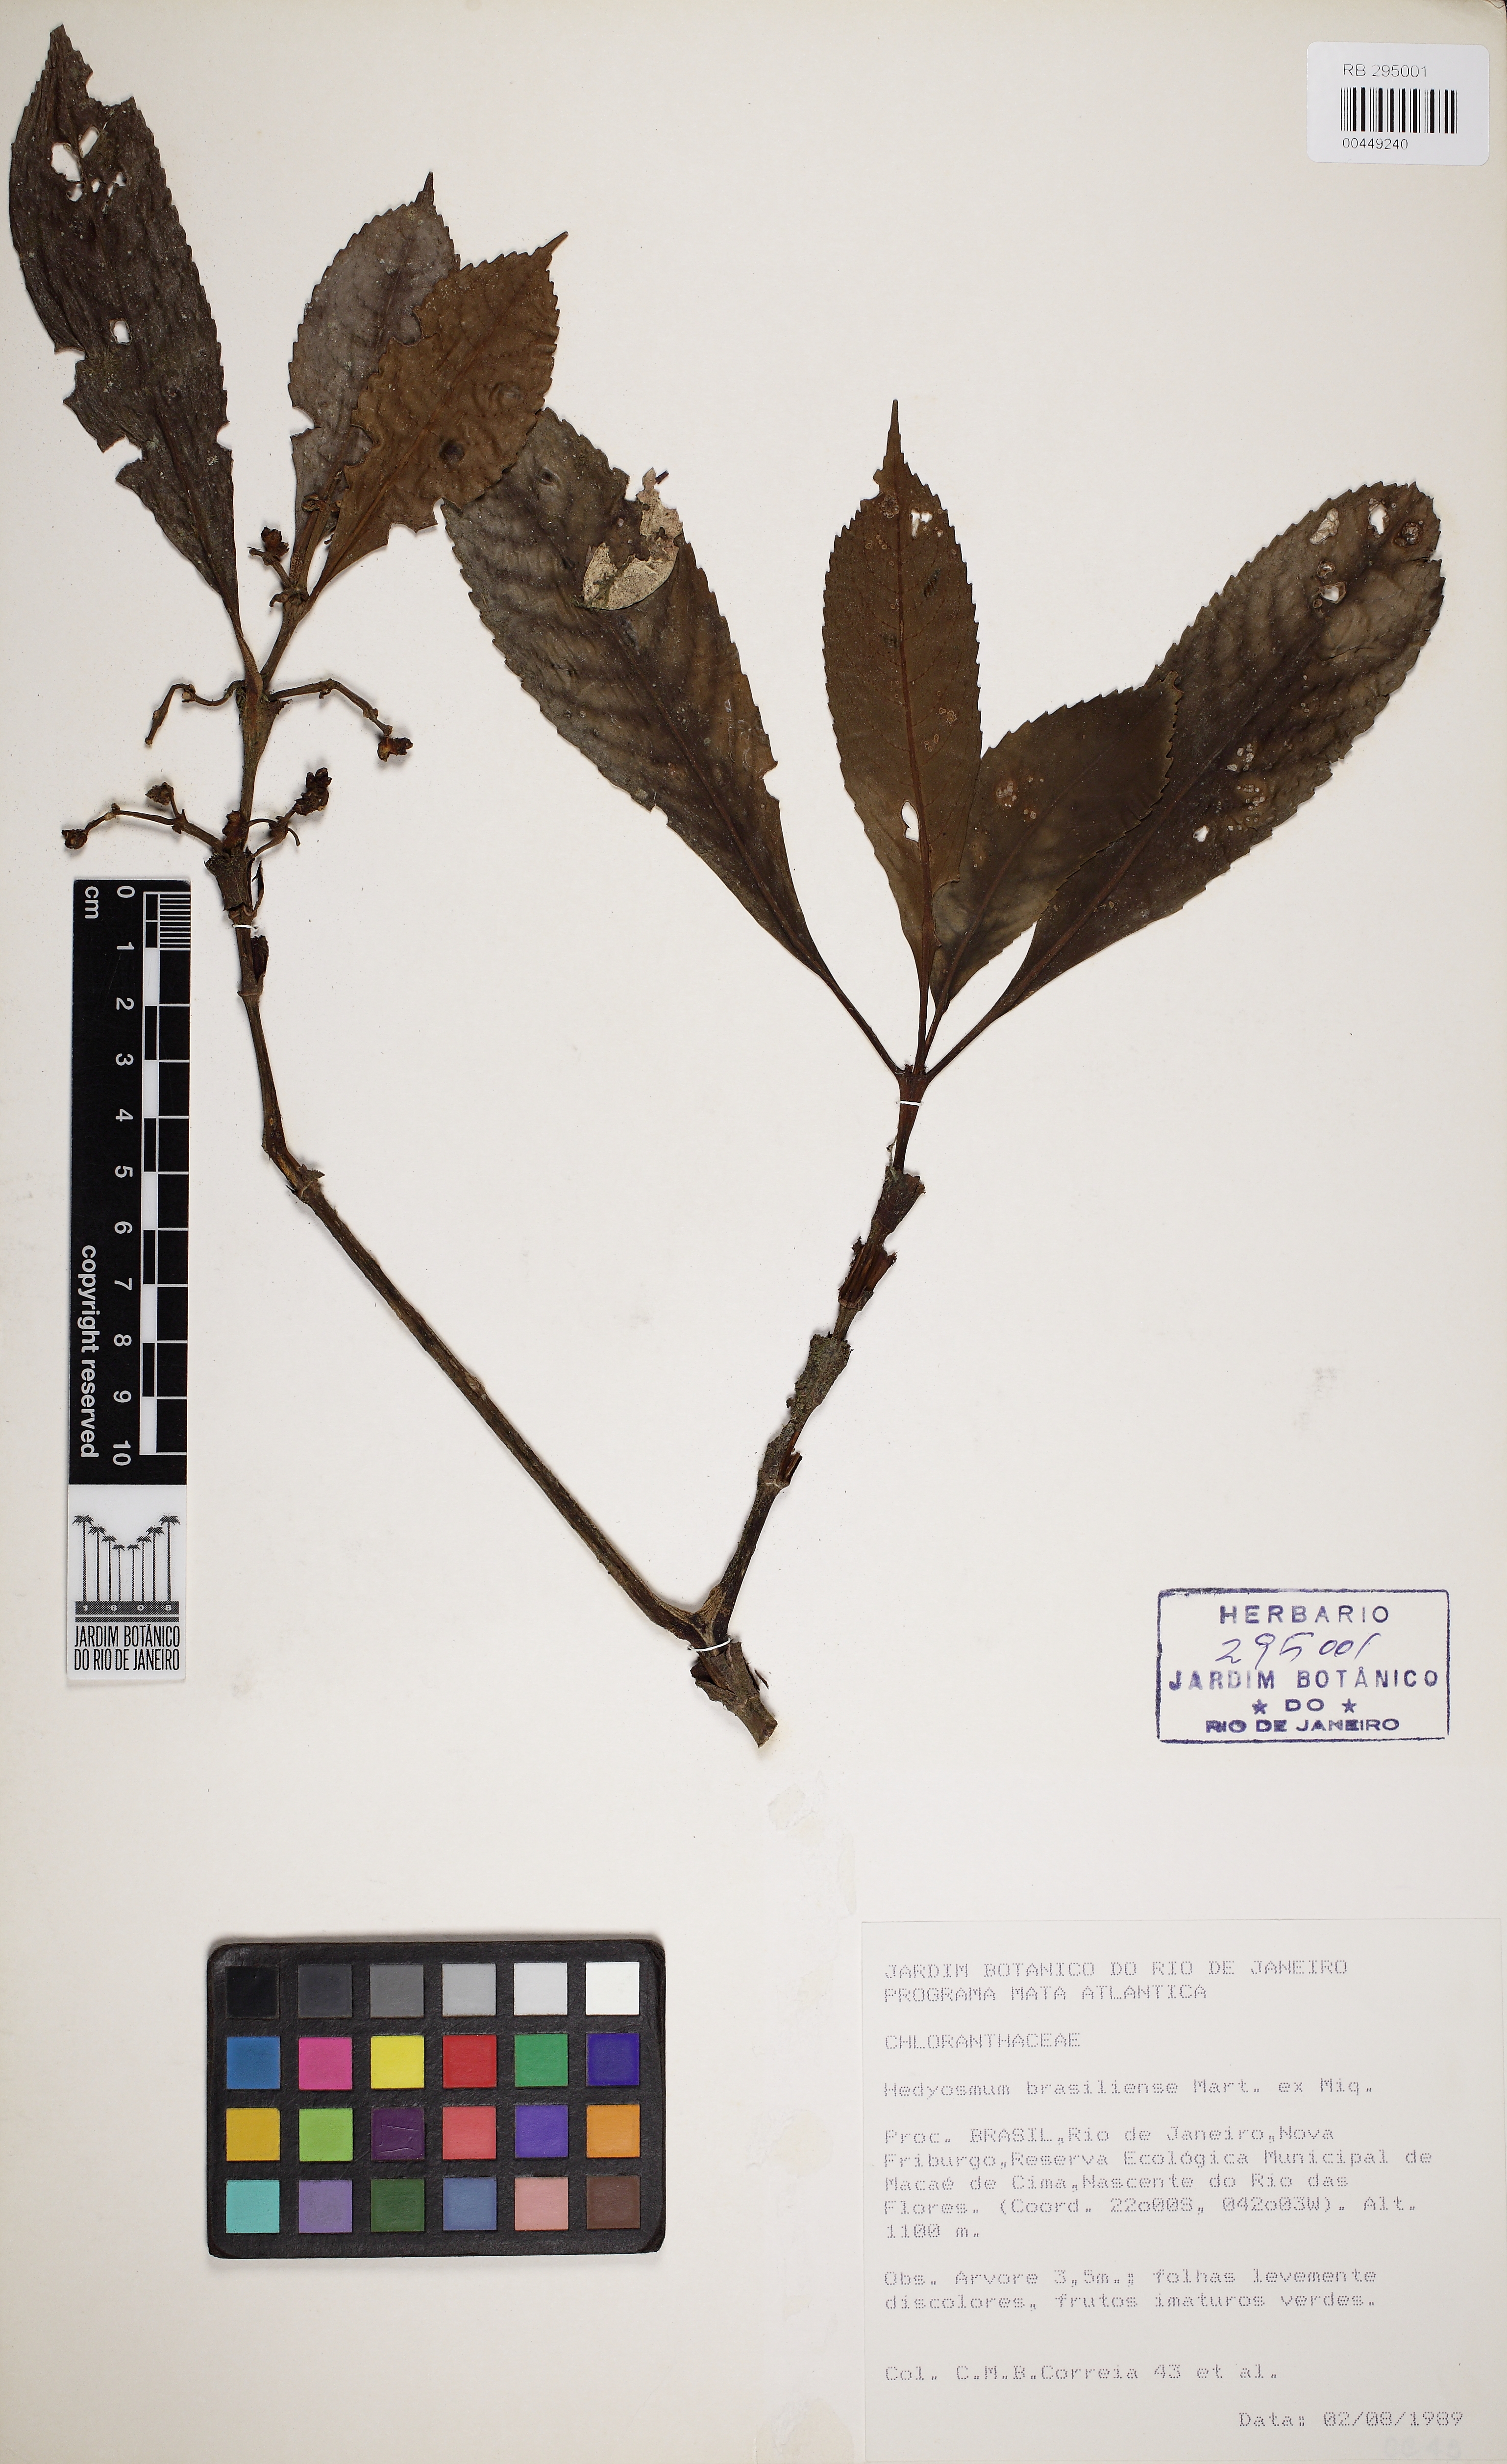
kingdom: Plantae
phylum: Tracheophyta
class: Magnoliopsida
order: Chloranthales
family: Chloranthaceae
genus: Hedyosmum
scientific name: Hedyosmum brasiliense
